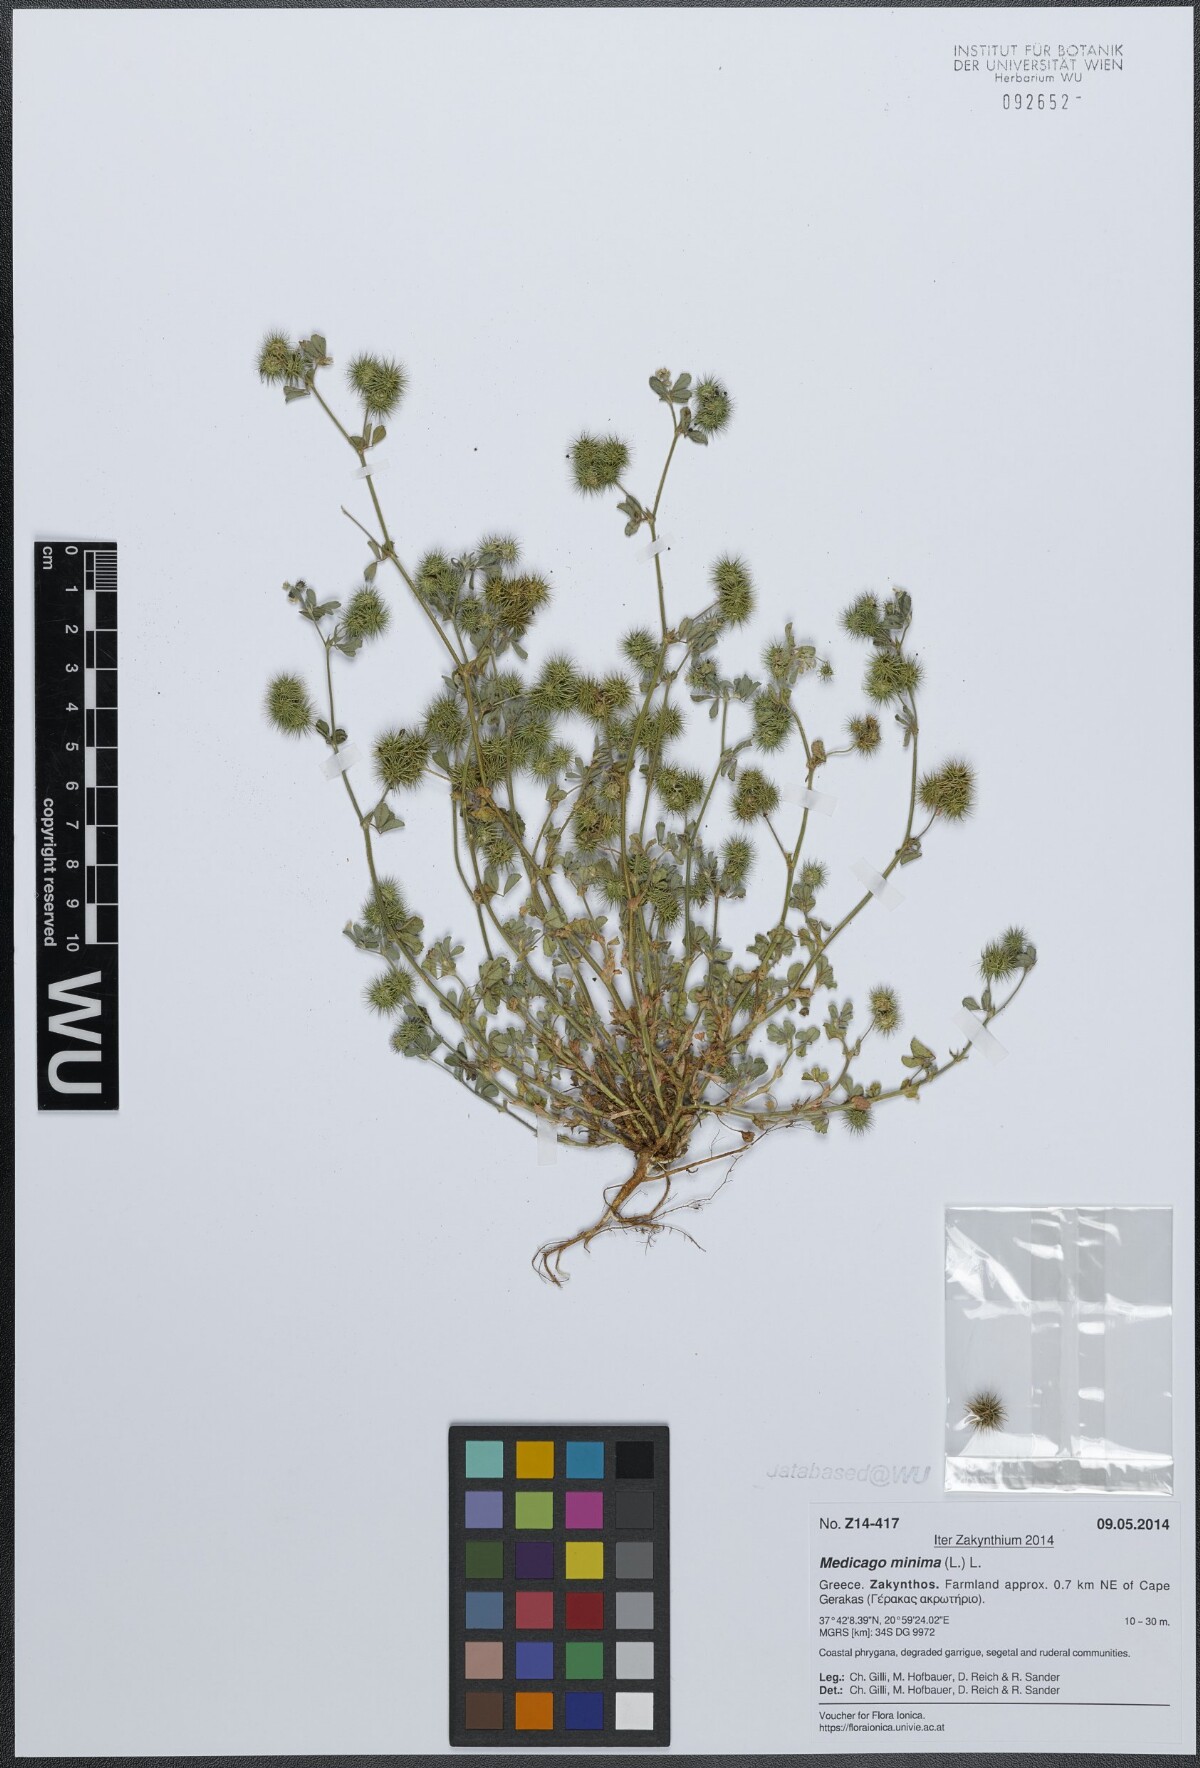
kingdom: Plantae
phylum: Tracheophyta
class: Magnoliopsida
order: Fabales
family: Fabaceae
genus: Medicago
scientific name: Medicago minima
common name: Little bur-clover
